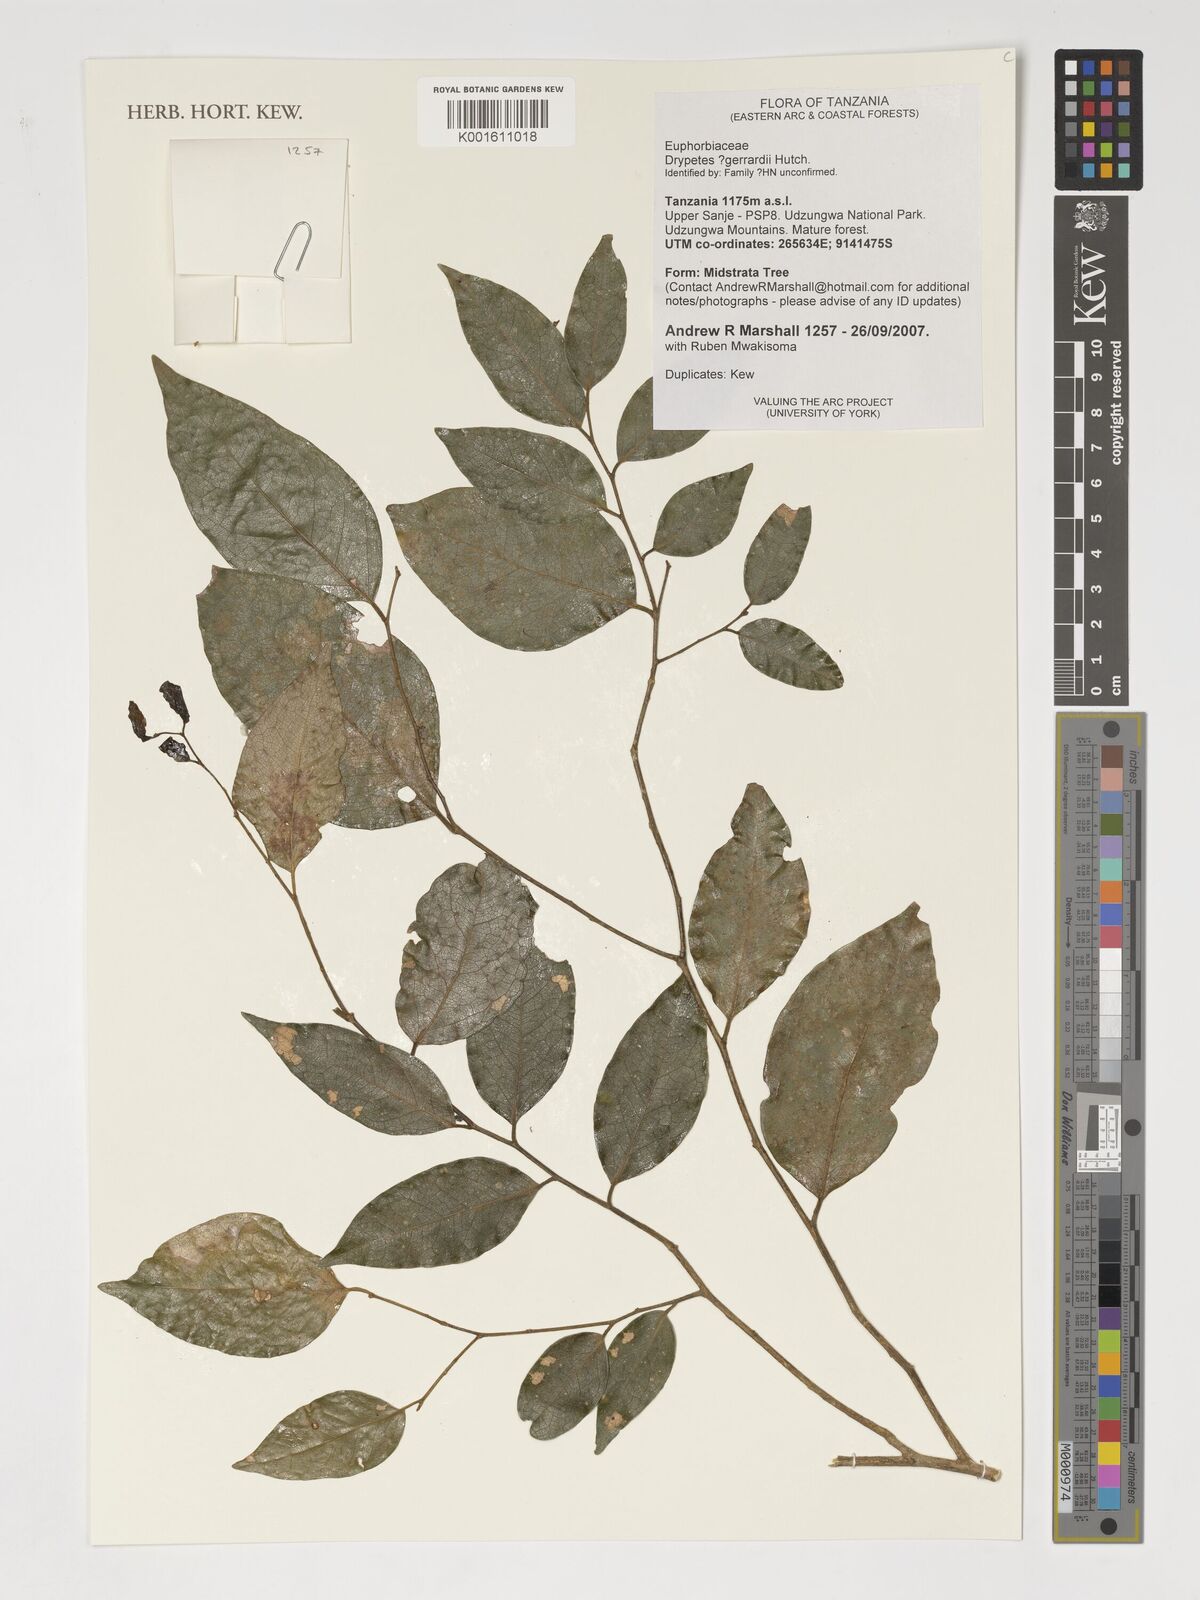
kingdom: Plantae
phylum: Tracheophyta
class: Magnoliopsida
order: Malpighiales
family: Putranjivaceae
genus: Drypetes
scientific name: Drypetes gerrardii
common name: Forest ironplum
